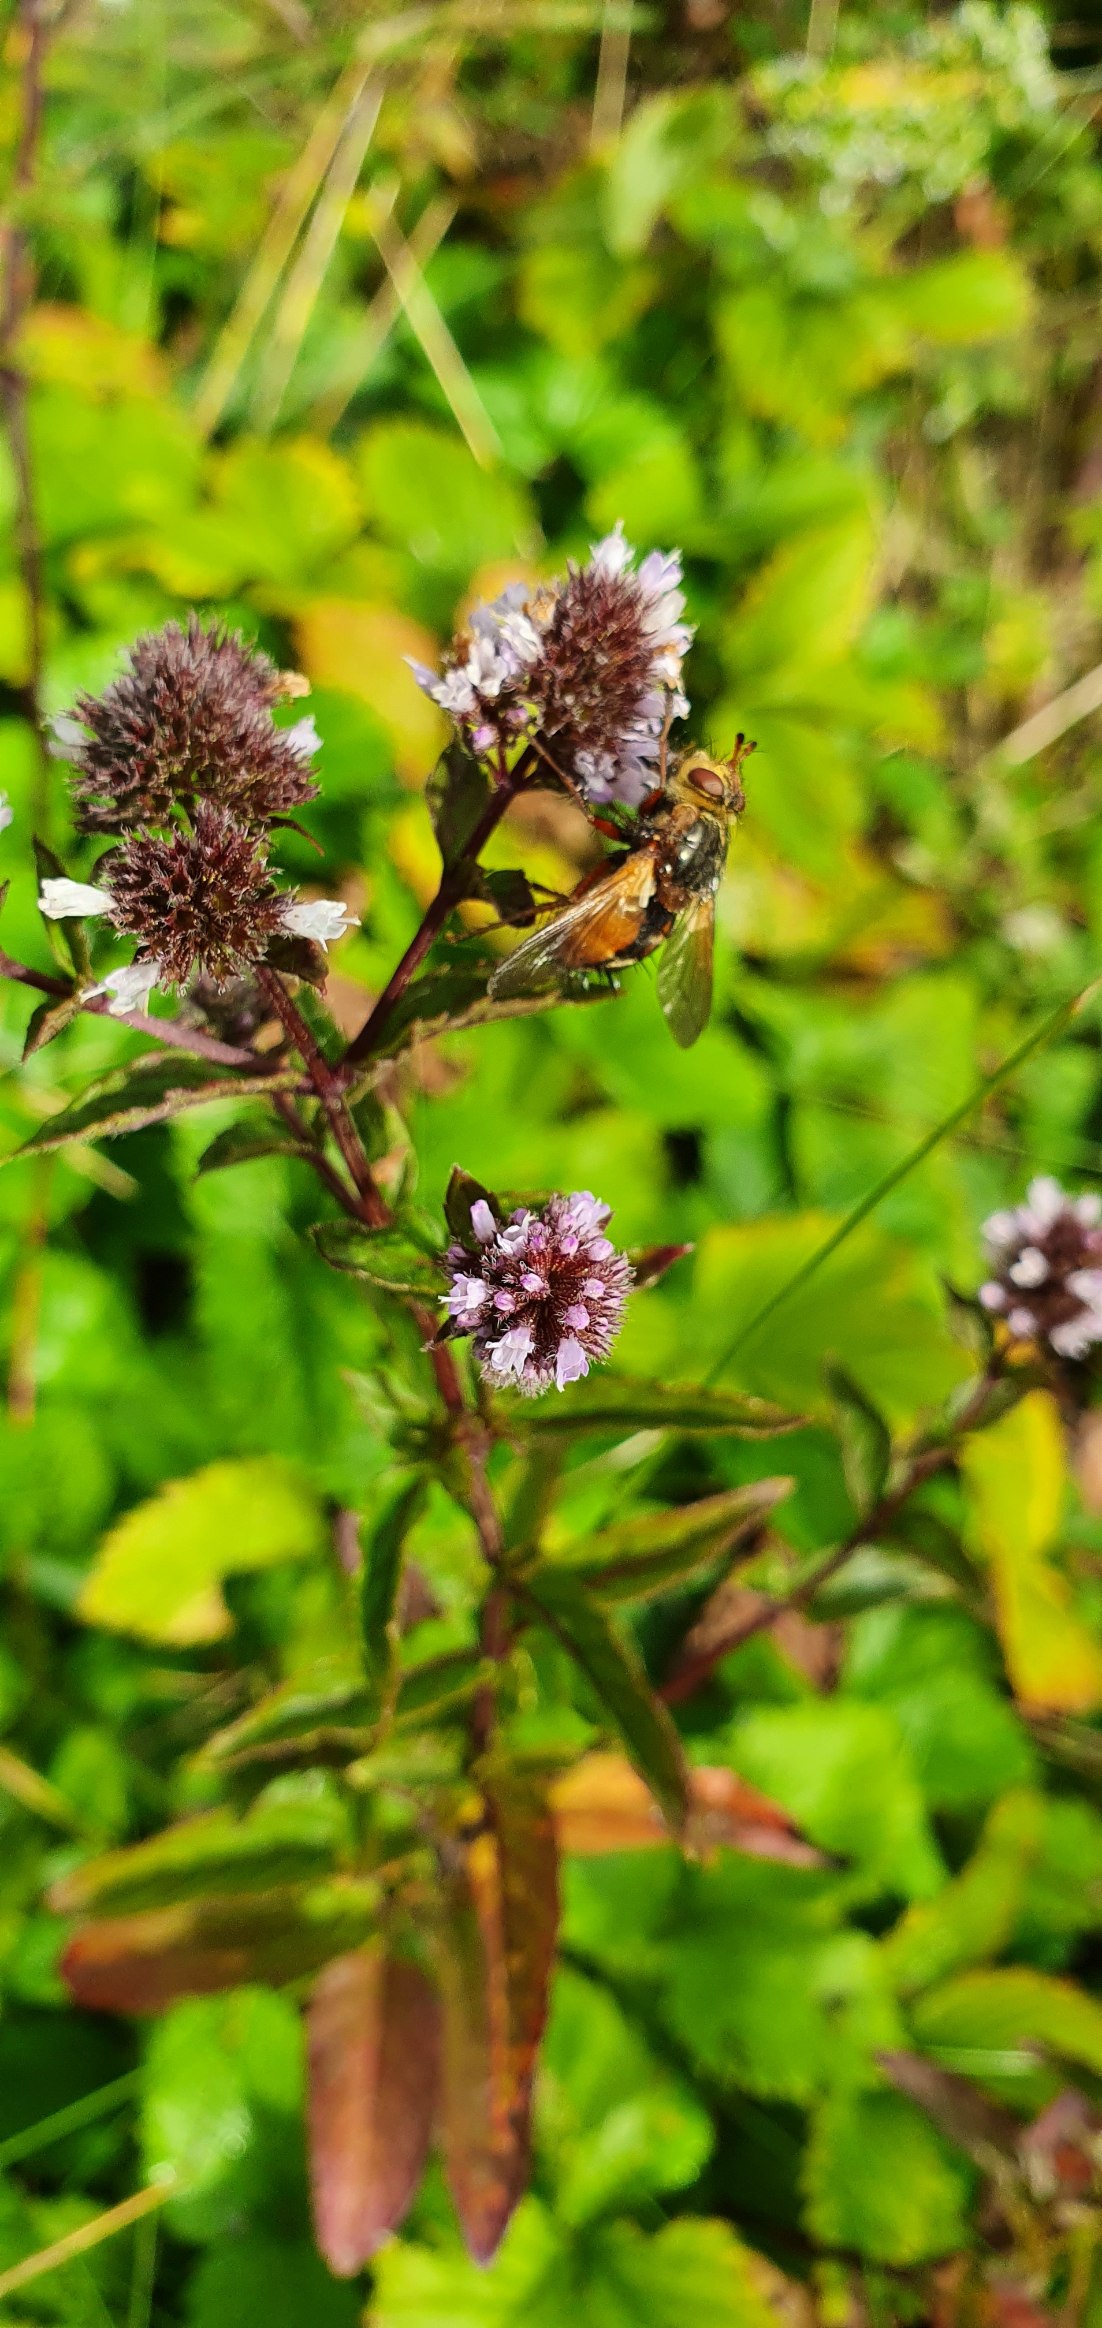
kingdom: Animalia
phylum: Arthropoda
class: Insecta
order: Diptera
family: Tachinidae
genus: Tachina
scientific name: Tachina fera
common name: Mellemfluen oskar
